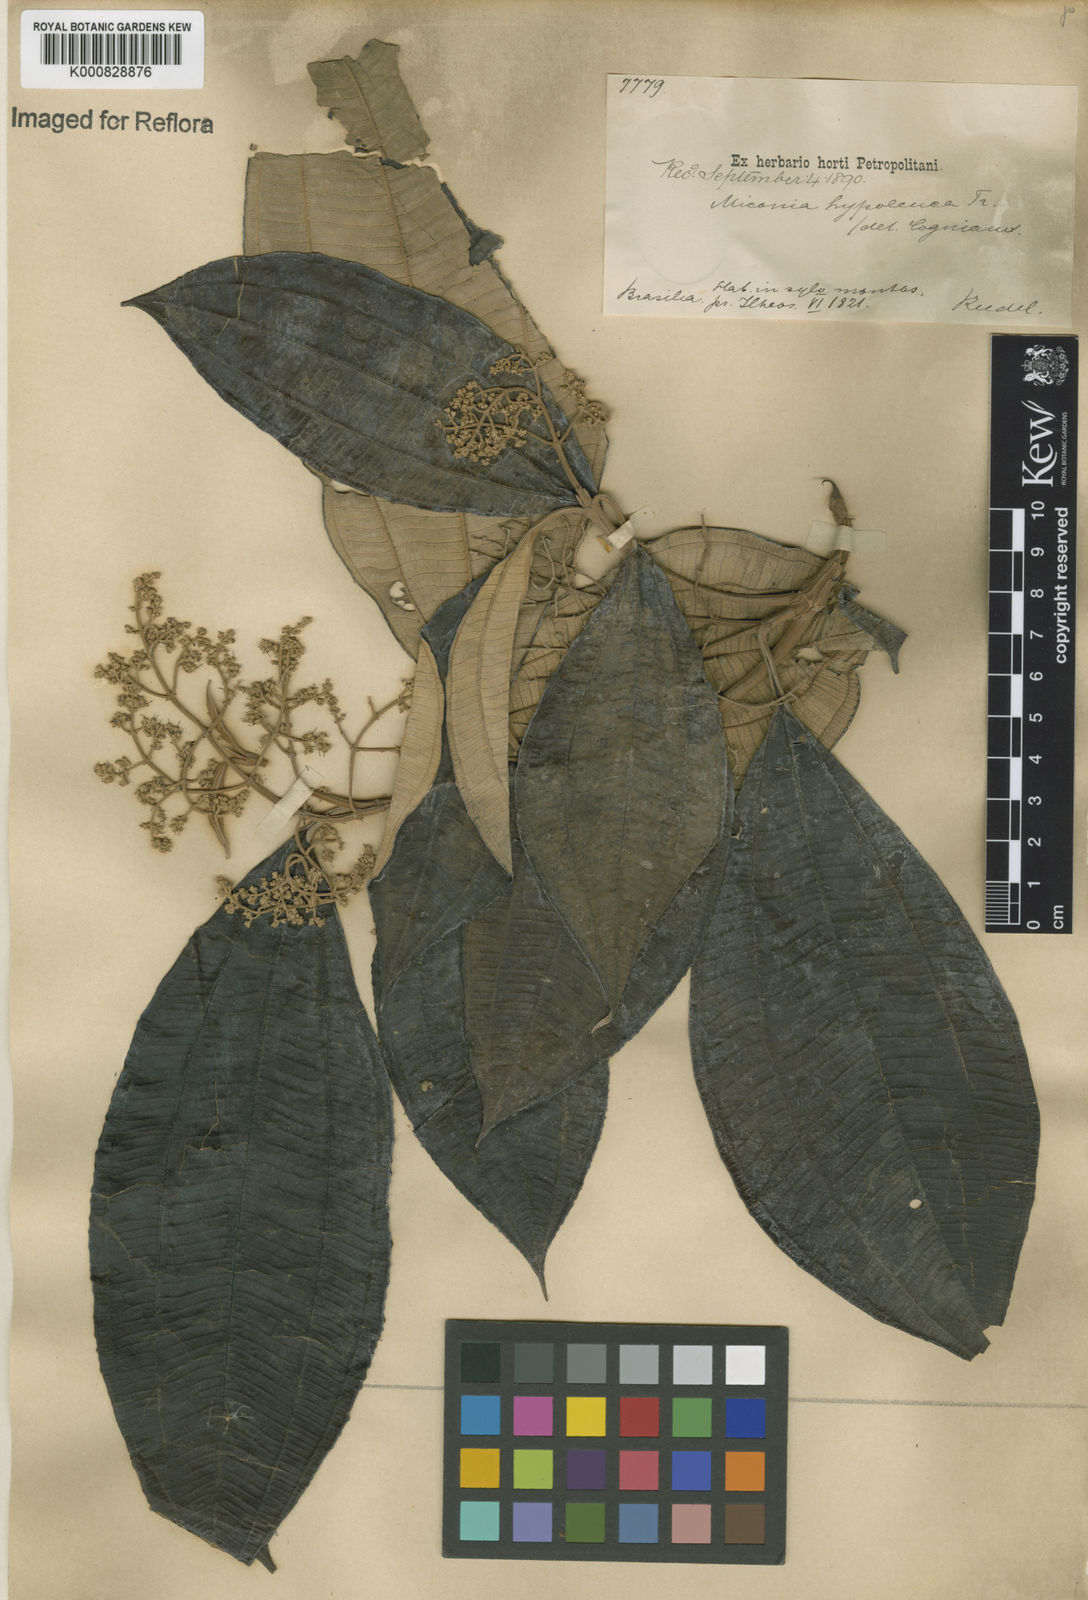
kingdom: Plantae
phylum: Tracheophyta
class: Magnoliopsida
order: Myrtales
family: Melastomataceae
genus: Miconia
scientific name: Miconia hypoleuca
